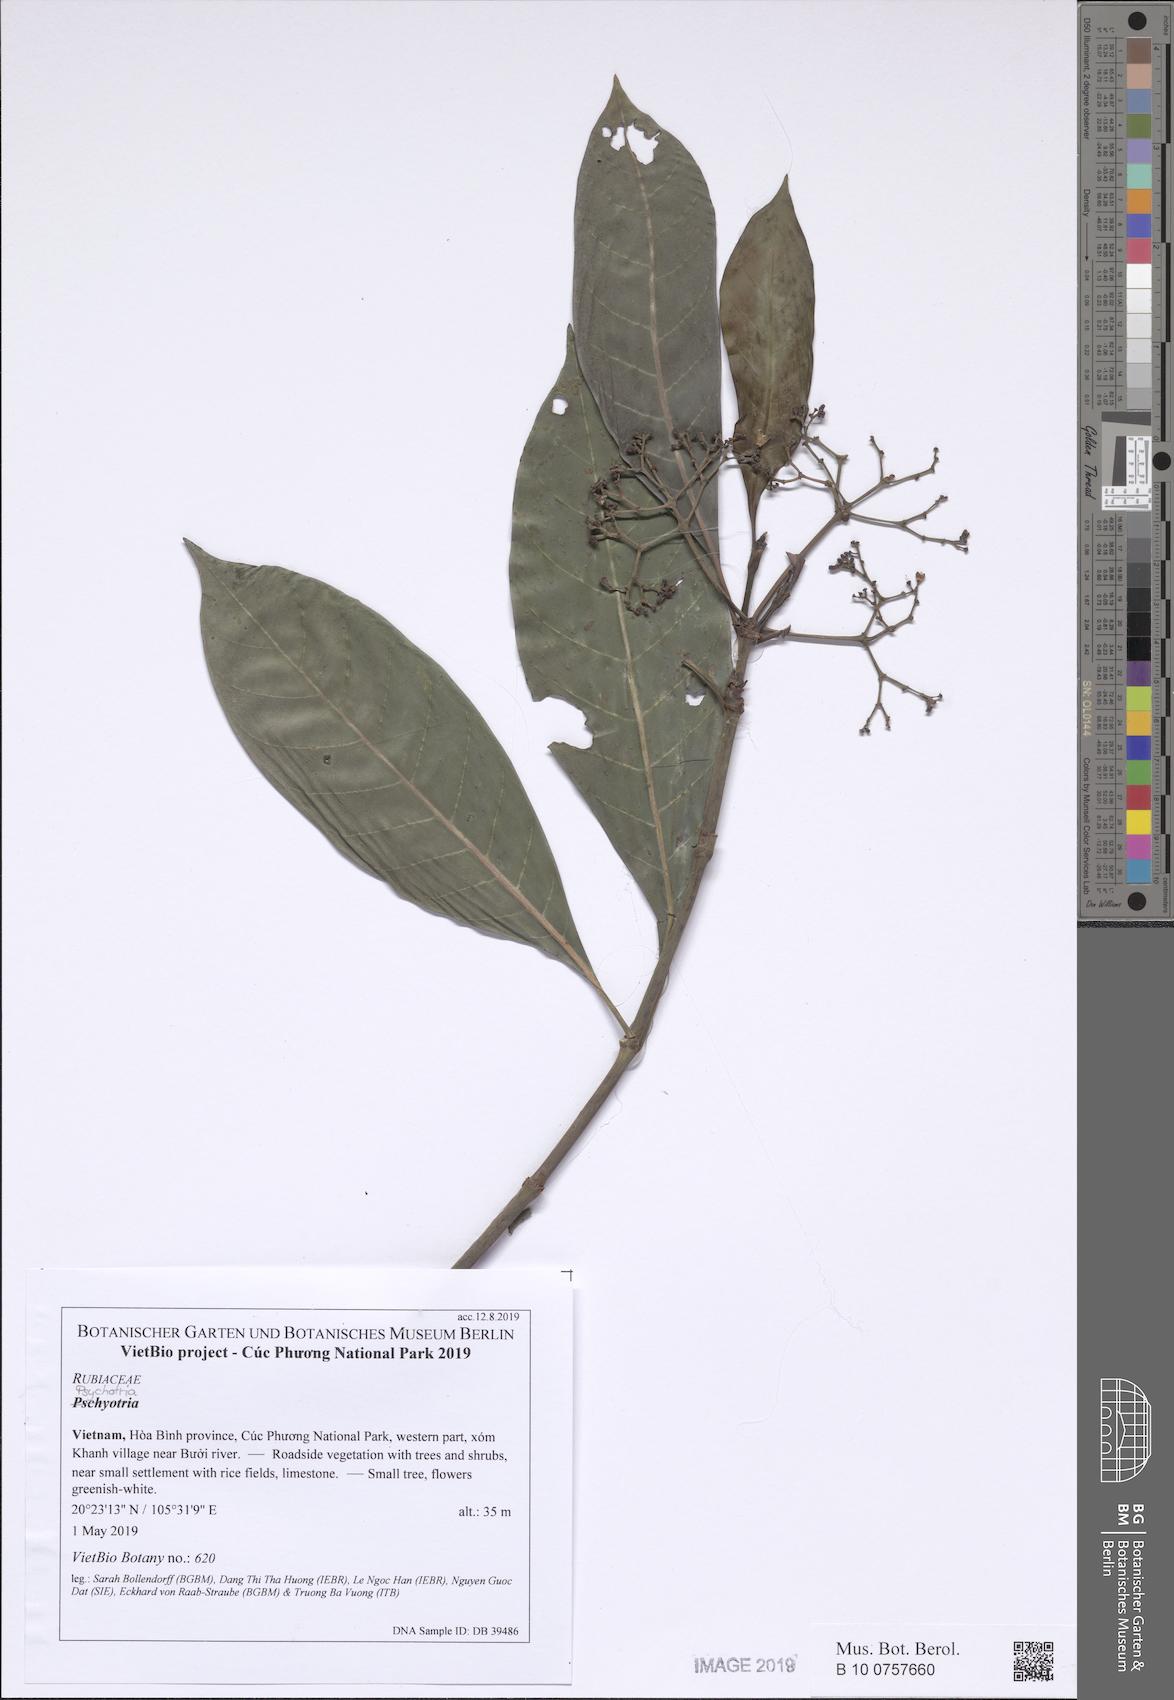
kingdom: Plantae
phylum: Tracheophyta
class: Magnoliopsida
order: Gentianales
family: Rubiaceae
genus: Psychotria
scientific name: Psychotria asiatica
